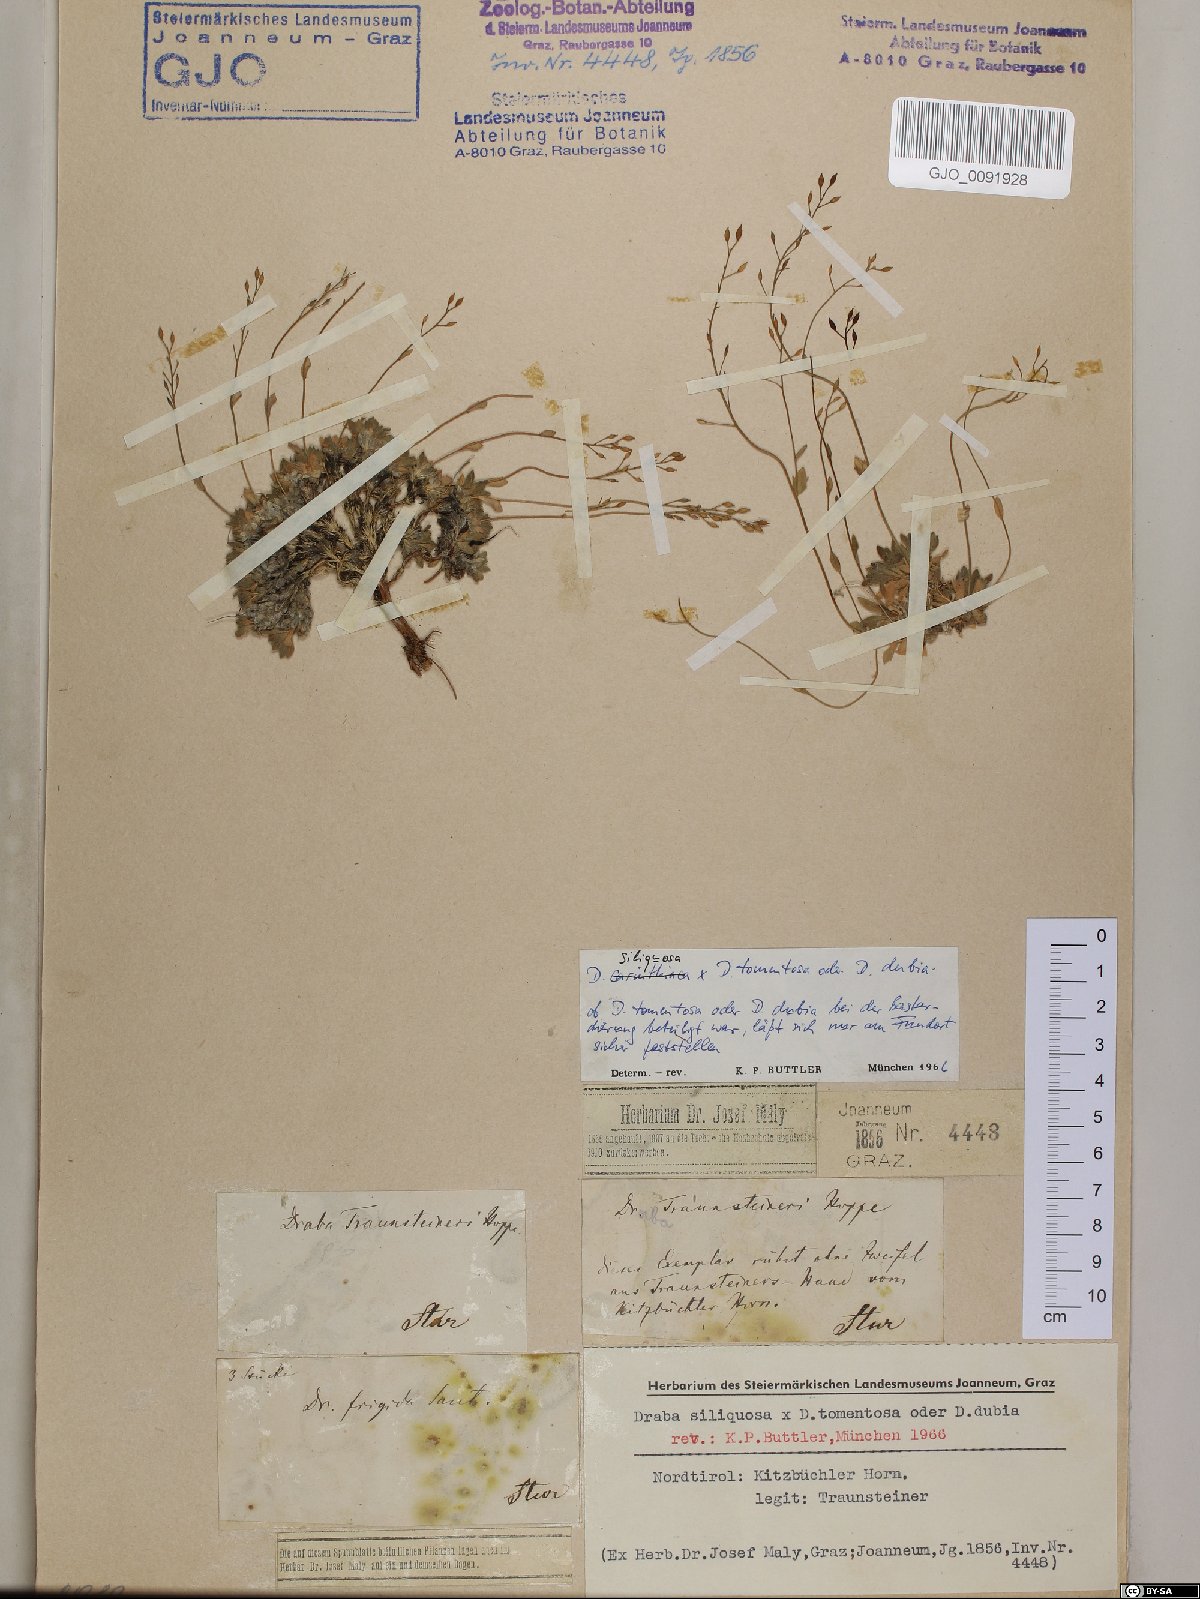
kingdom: Plantae
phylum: Tracheophyta
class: Magnoliopsida
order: Brassicales
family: Brassicaceae
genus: Draba
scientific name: Draba siliquosa
